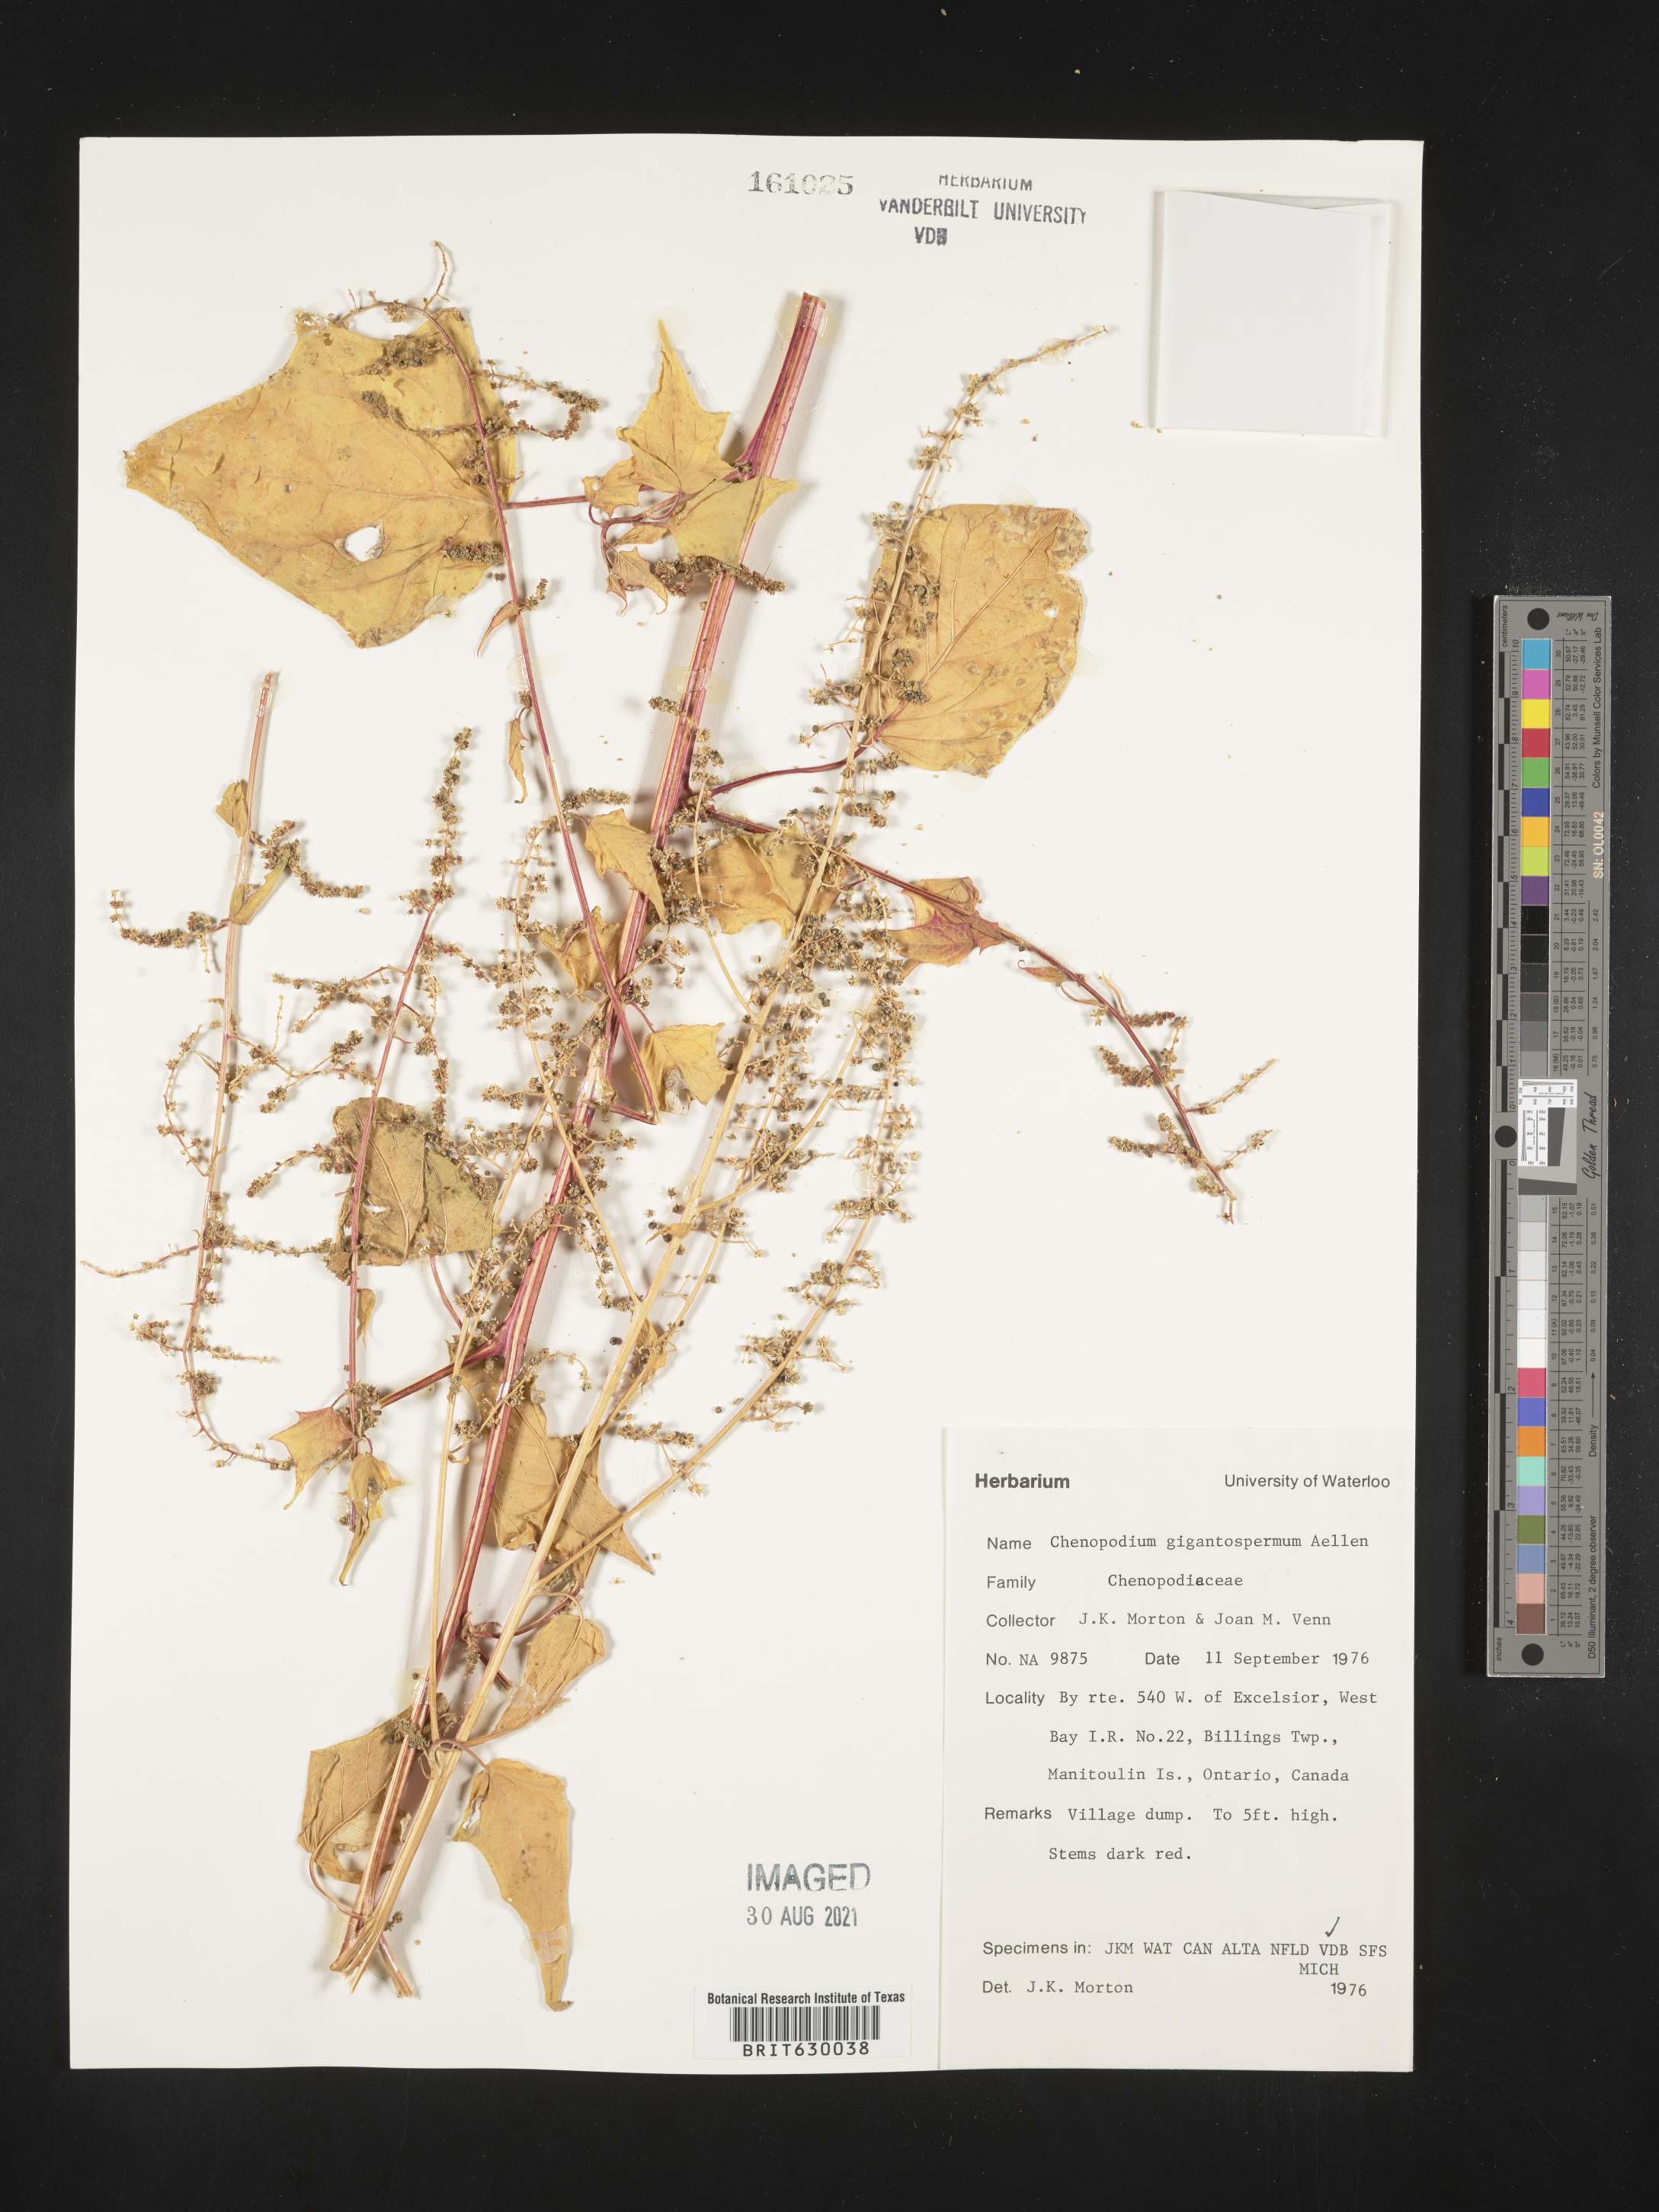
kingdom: Plantae
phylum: Tracheophyta
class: Magnoliopsida
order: Caryophyllales
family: Amaranthaceae
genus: Chenopodiastrum
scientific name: Chenopodiastrum simplex
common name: Large-seed goosefoot
